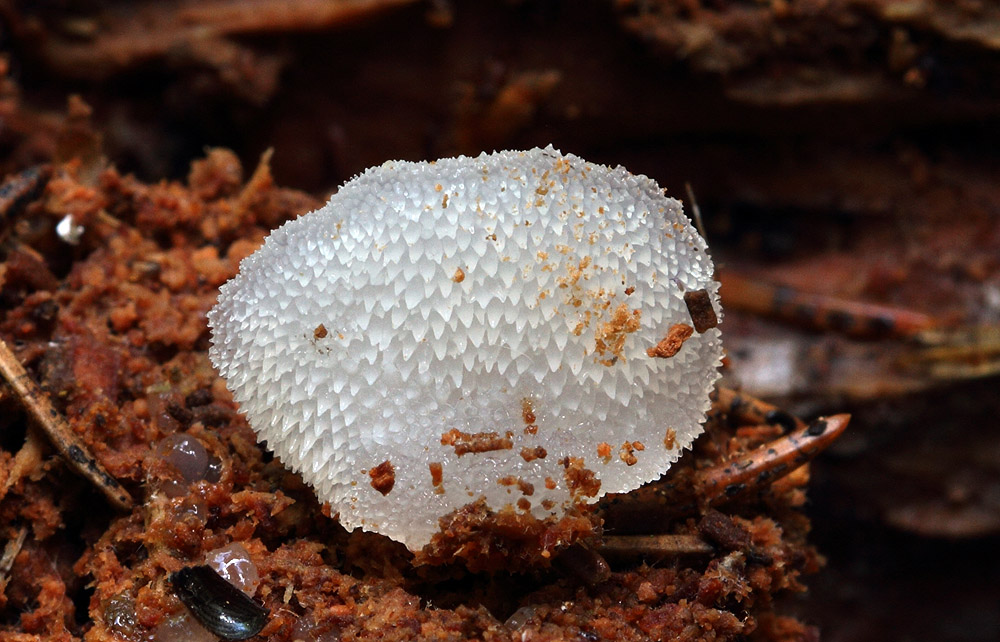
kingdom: Fungi
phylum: Basidiomycota
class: Agaricomycetes
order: Auriculariales
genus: Pseudohydnum
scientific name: Pseudohydnum gelatinosum
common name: bævretand
